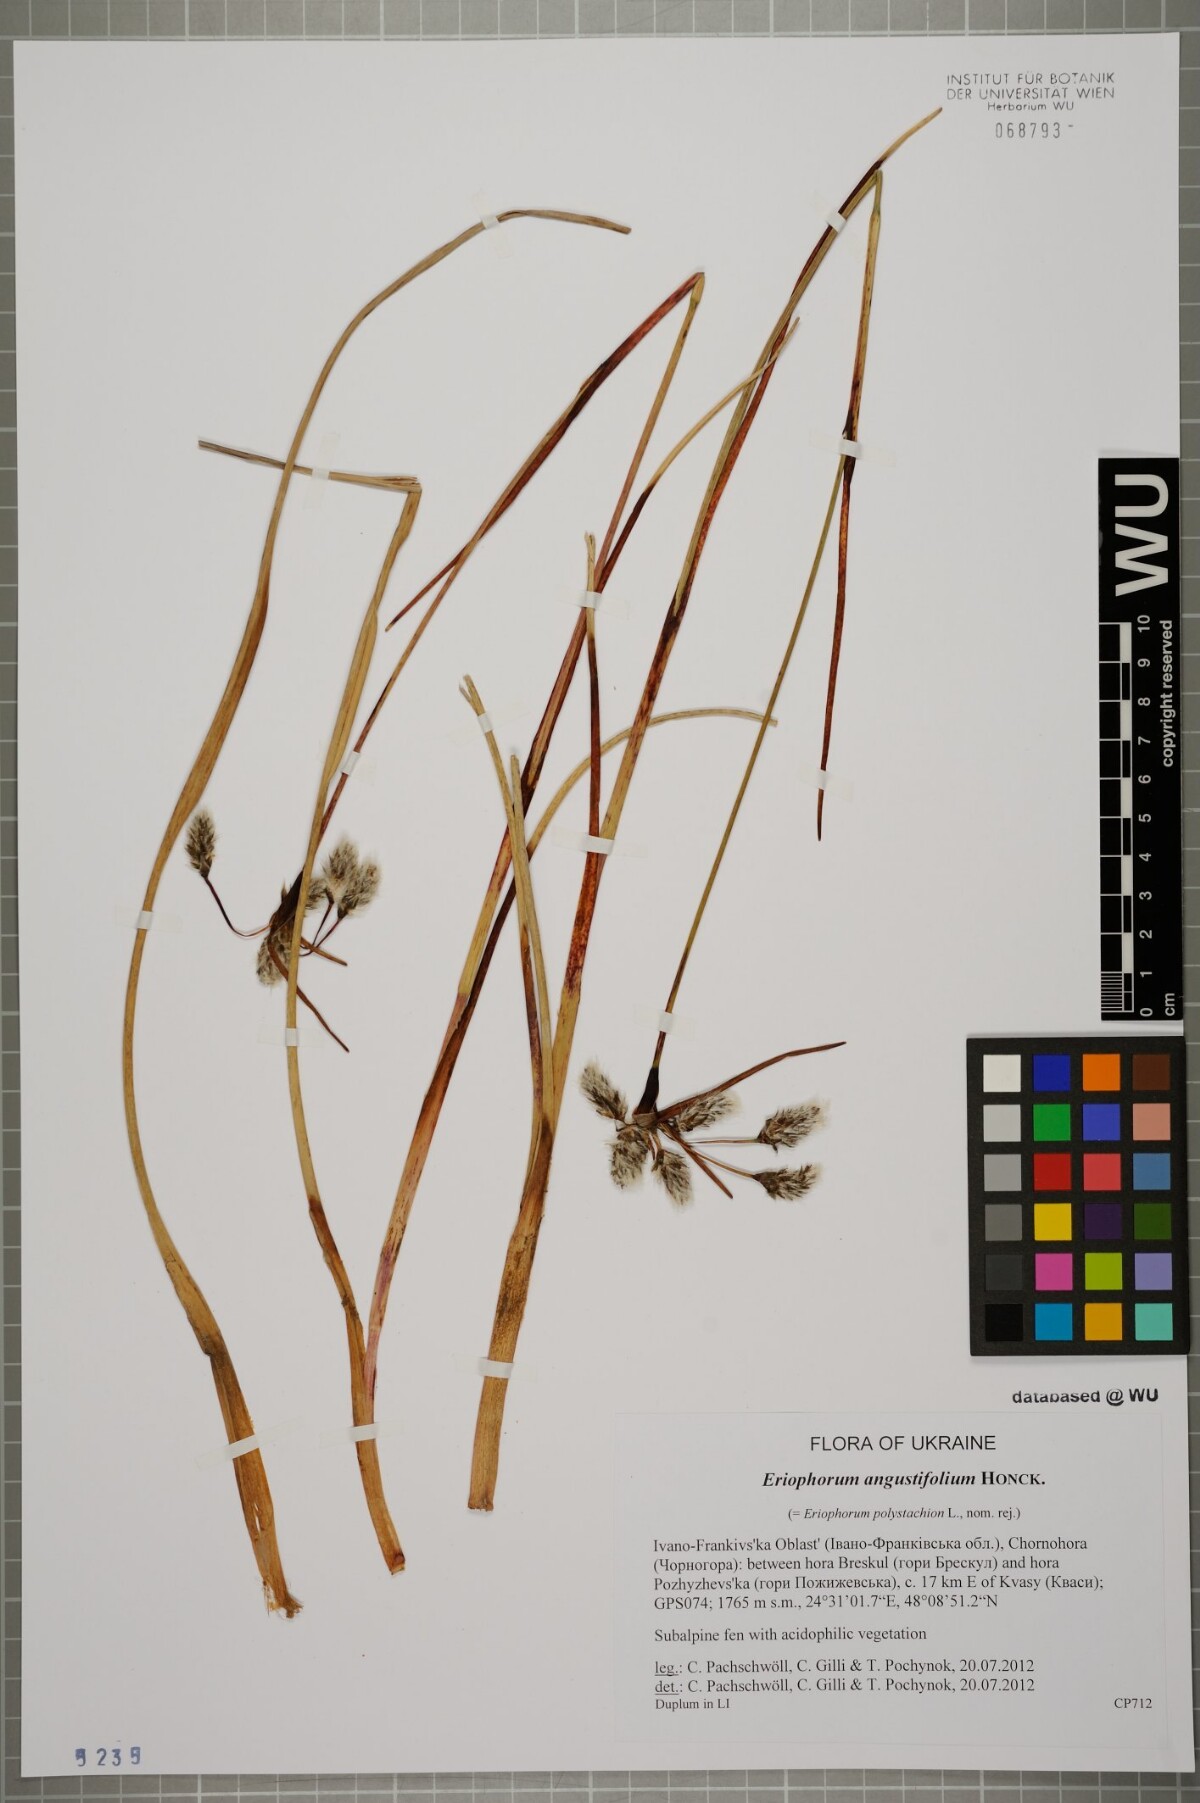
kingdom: Plantae
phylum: Tracheophyta
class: Liliopsida
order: Poales
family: Cyperaceae
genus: Eriophorum
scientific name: Eriophorum angustifolium
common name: Common cottongrass
